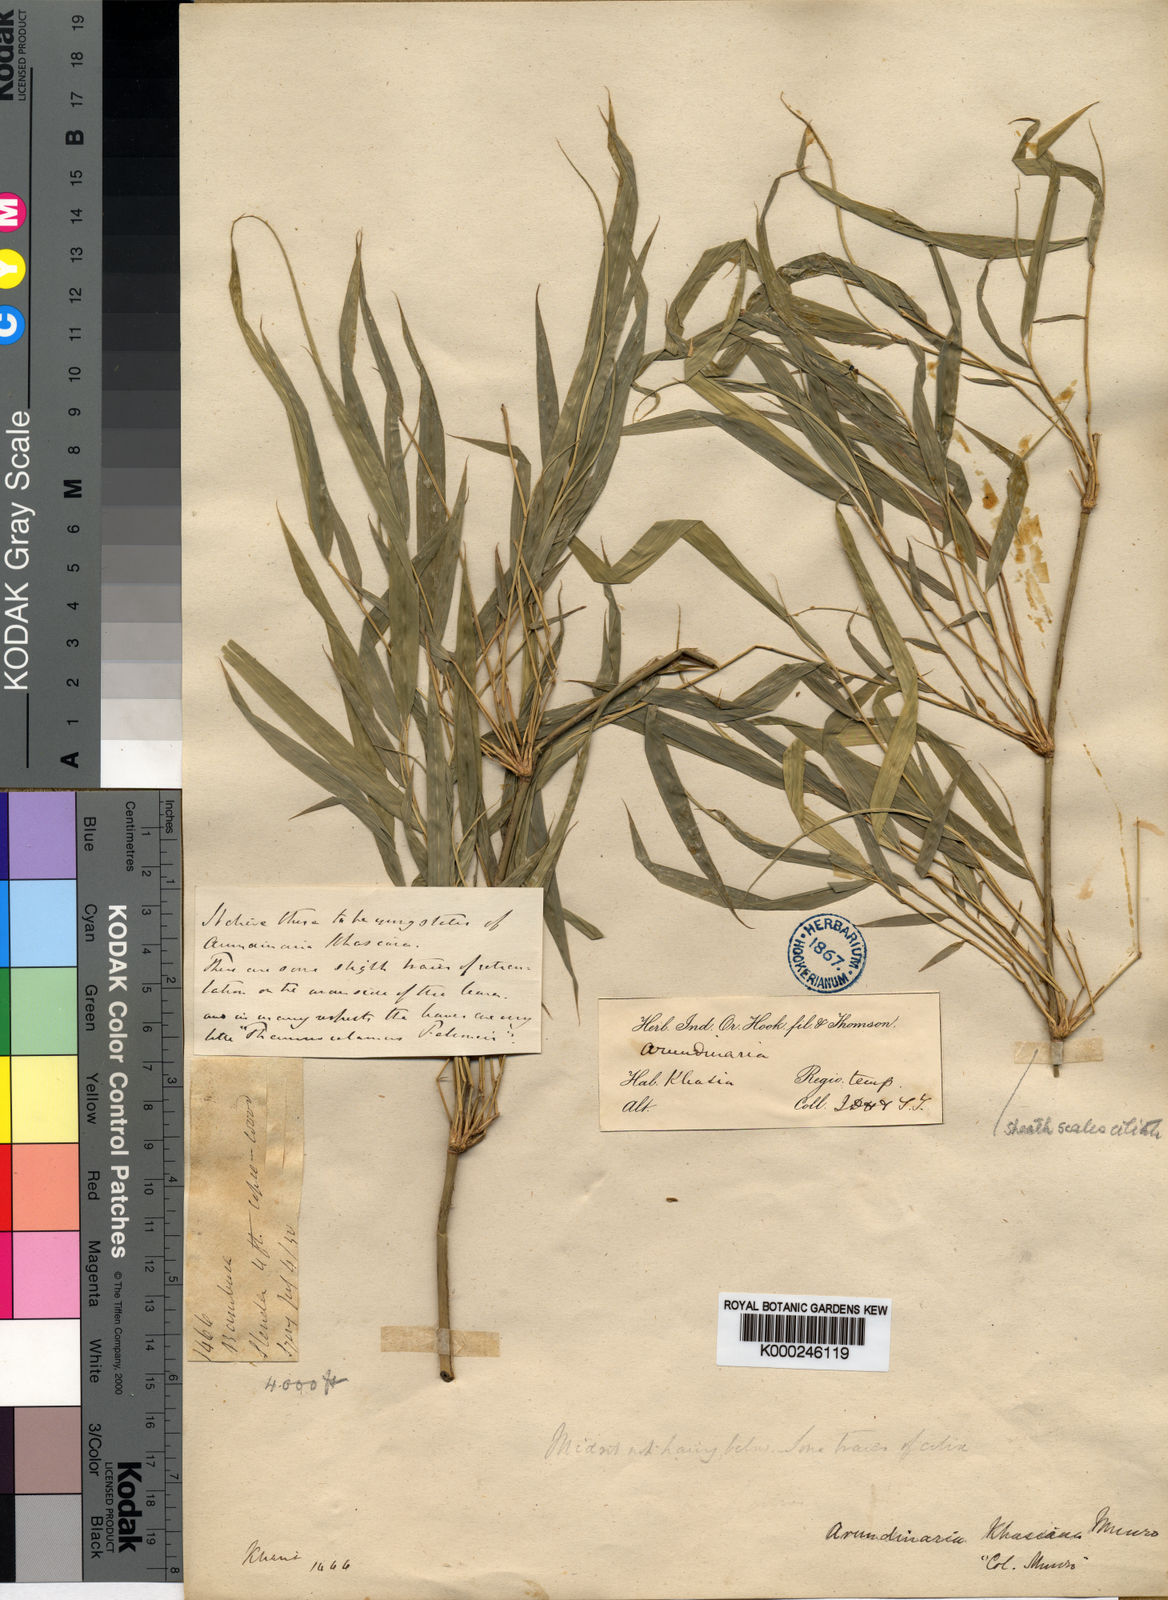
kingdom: Plantae
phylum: Tracheophyta
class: Liliopsida
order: Poales
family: Poaceae
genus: Drepanostachyum
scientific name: Drepanostachyum khasianum
